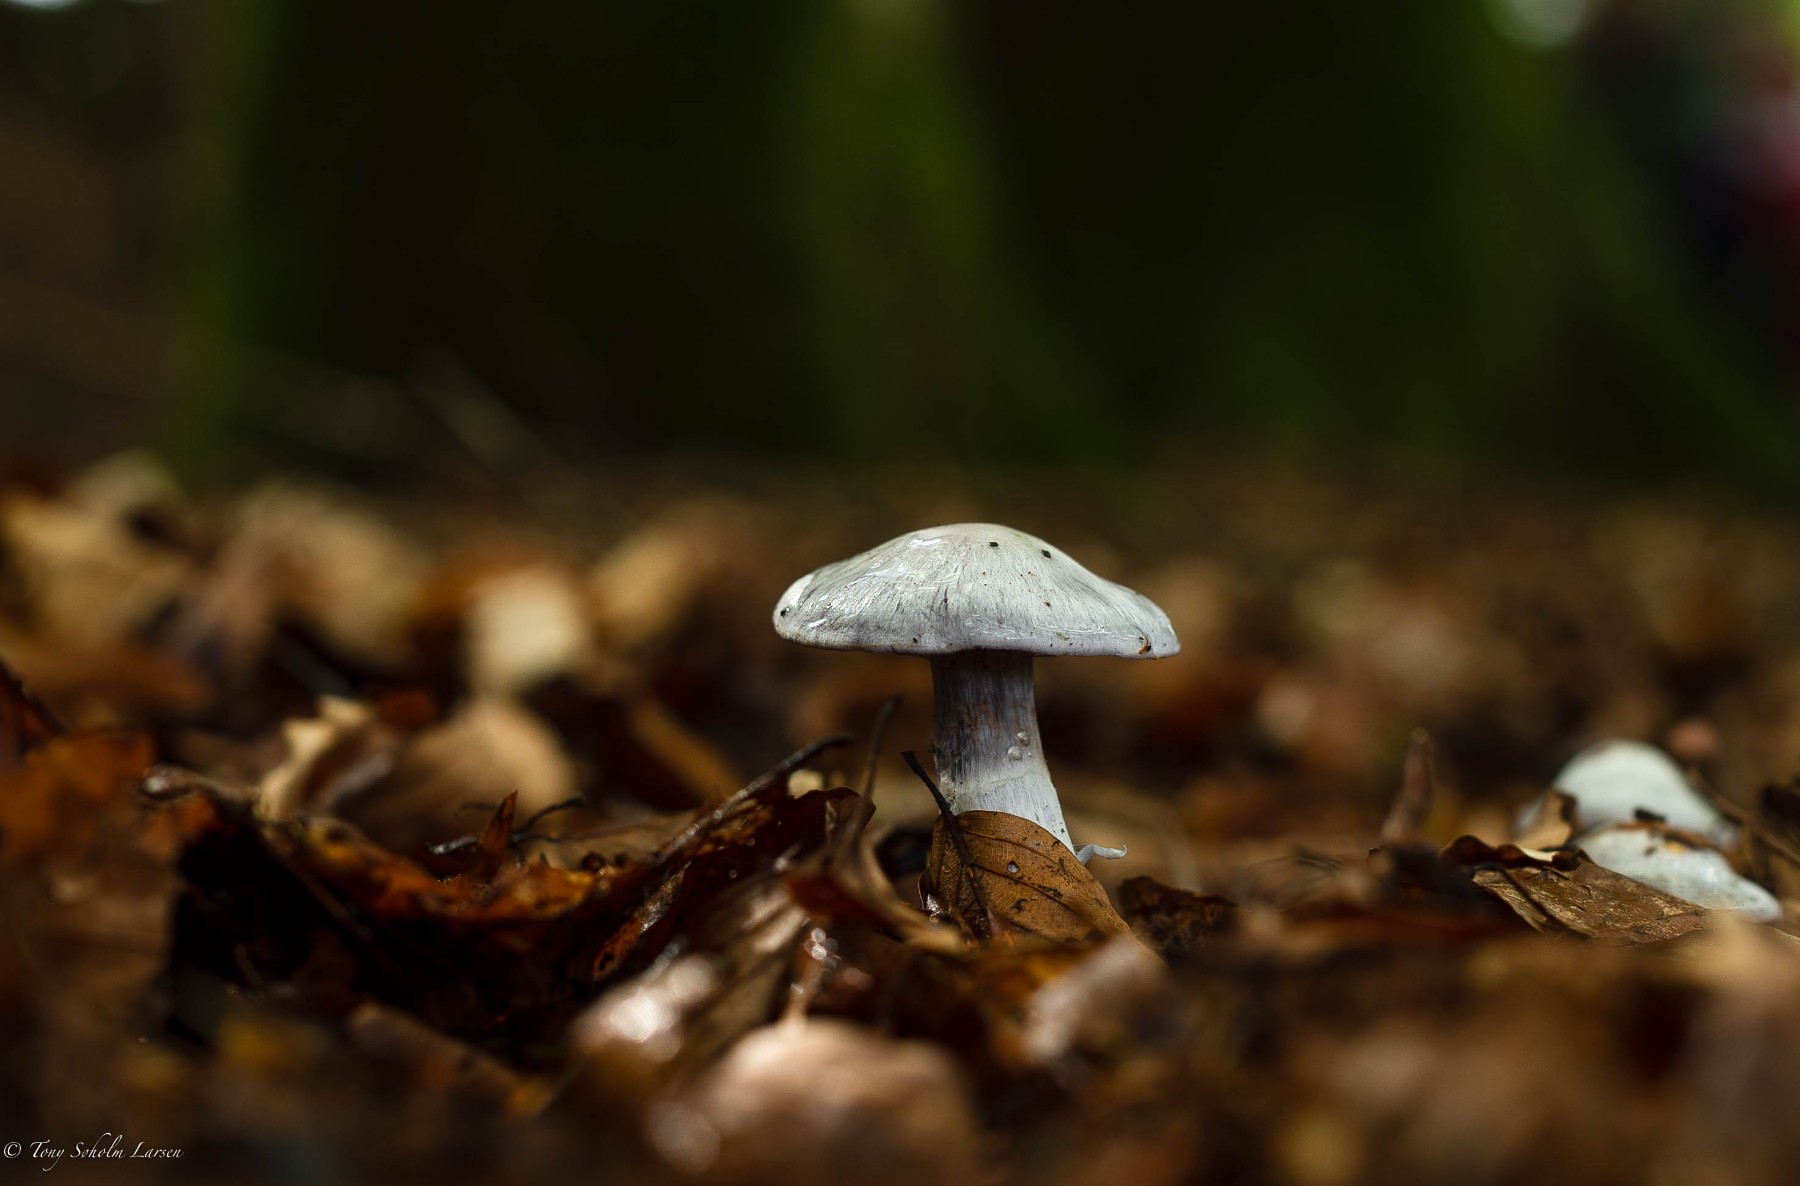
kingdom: Fungi
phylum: Basidiomycota
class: Agaricomycetes
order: Agaricales
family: Cortinariaceae
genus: Cortinarius
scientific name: Cortinarius alboviolaceus
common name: lysviolet slørhat
